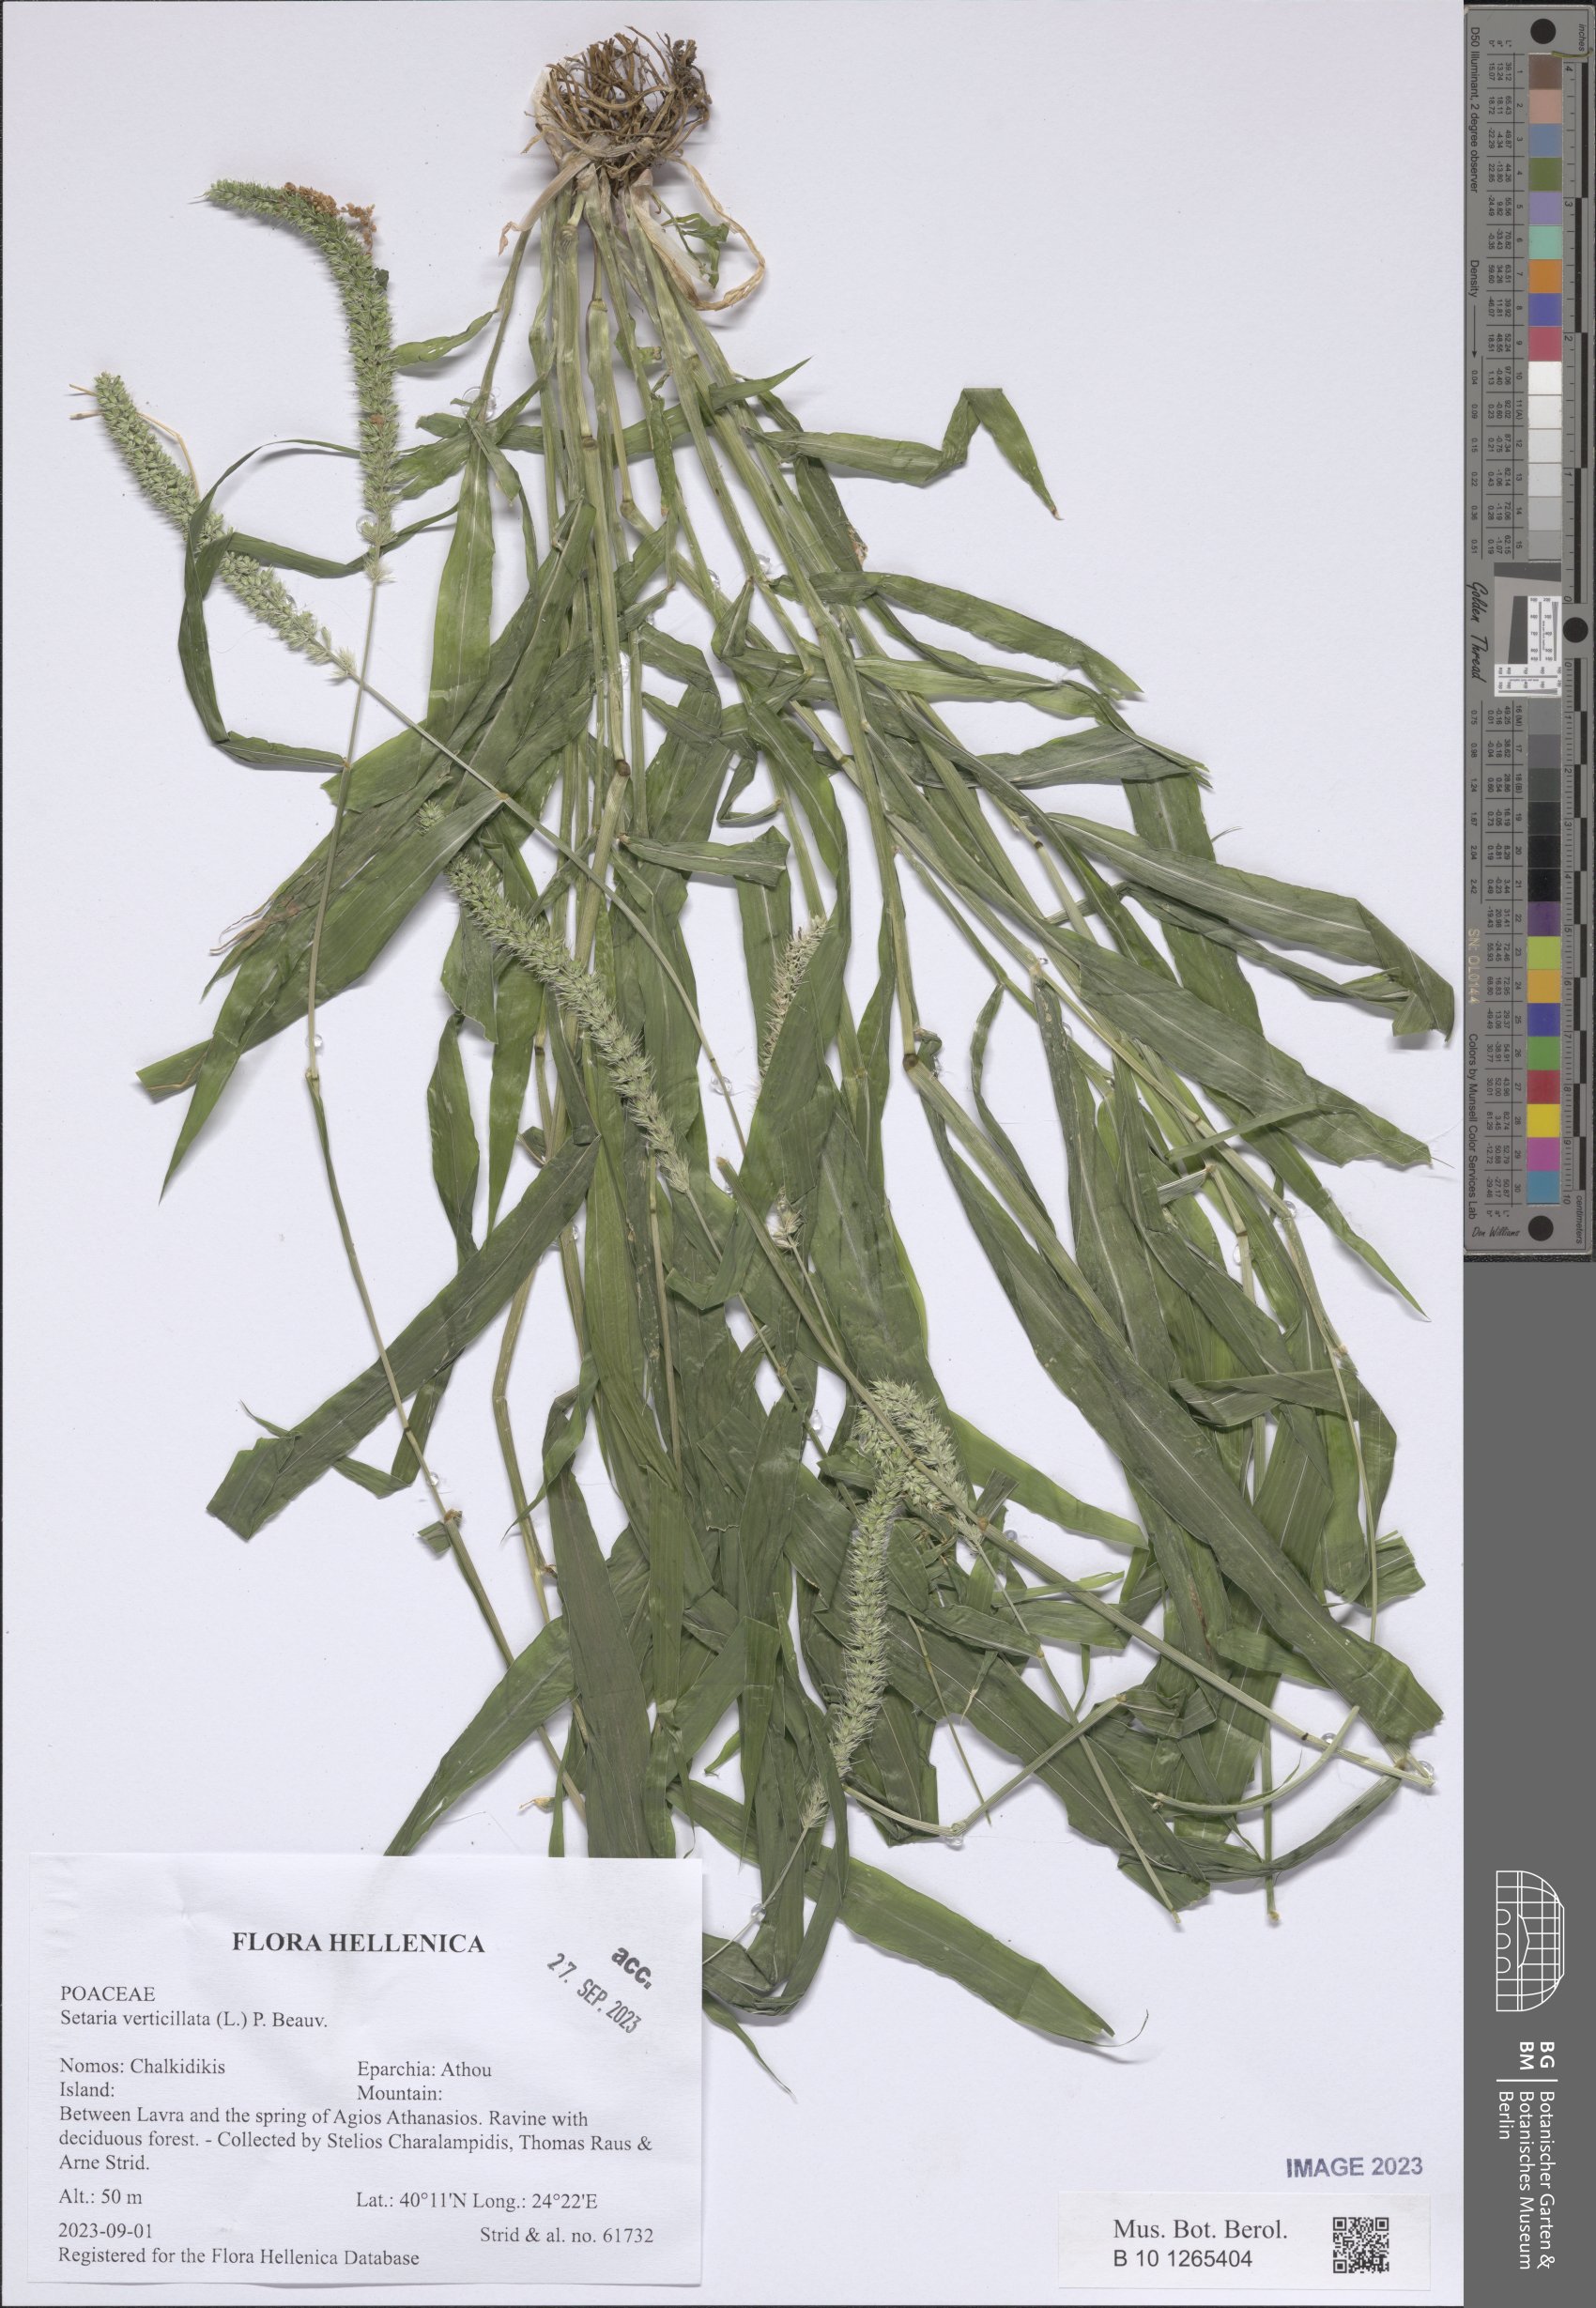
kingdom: Plantae
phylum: Tracheophyta
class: Liliopsida
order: Poales
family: Poaceae
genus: Setaria
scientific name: Setaria verticillata
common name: Hooked bristlegrass
